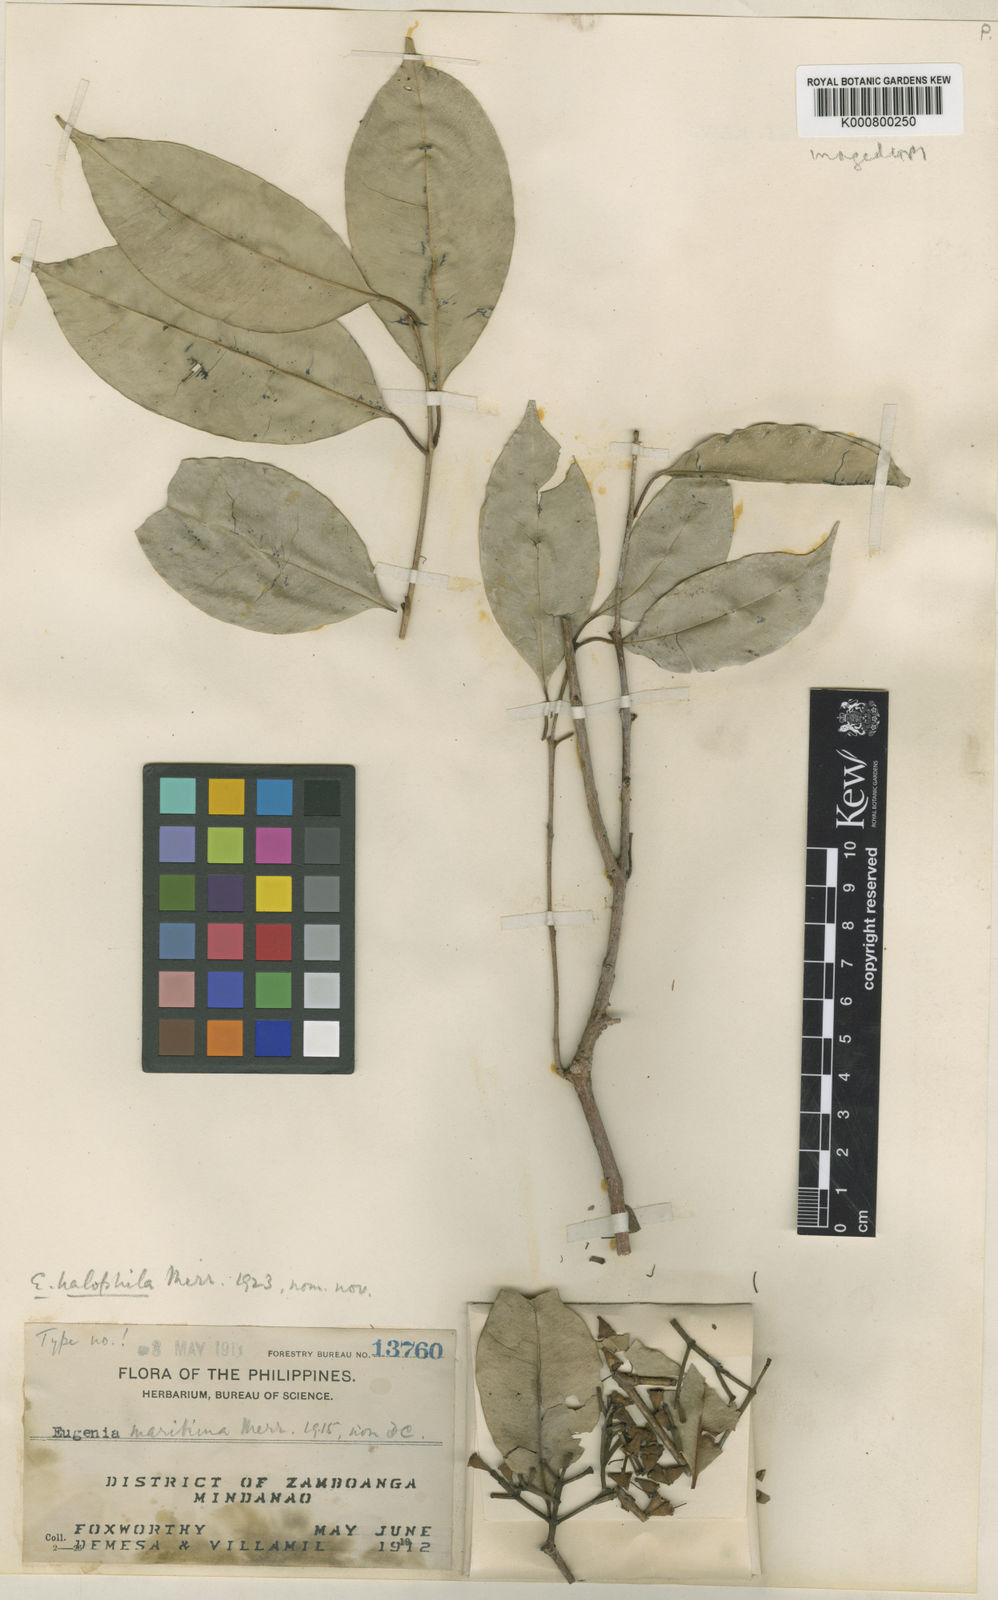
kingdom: Plantae
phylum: Tracheophyta
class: Magnoliopsida
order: Myrtales
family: Myrtaceae
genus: Syzygium
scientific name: Syzygium halophilum
